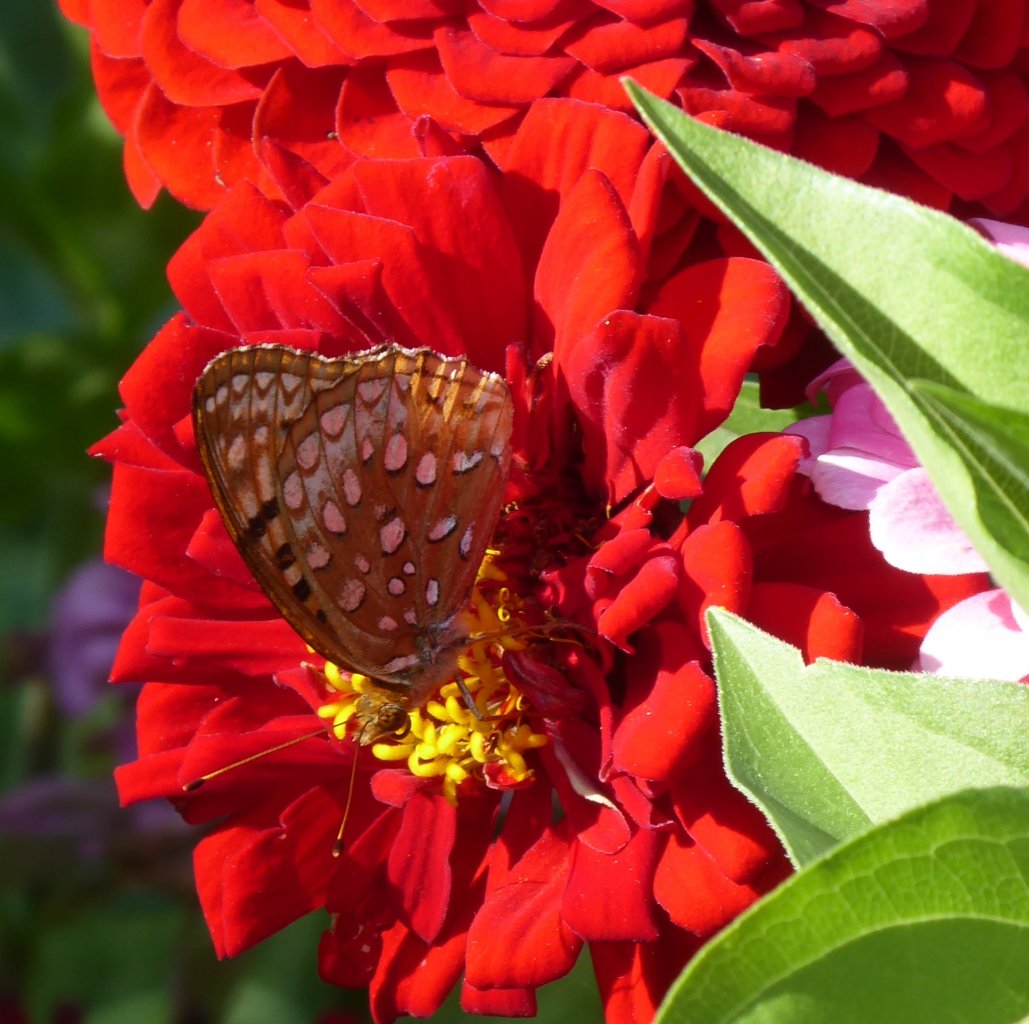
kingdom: Animalia
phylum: Arthropoda
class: Insecta
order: Lepidoptera
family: Nymphalidae
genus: Speyeria
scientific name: Speyeria cybele
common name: Great Spangled Fritillary
